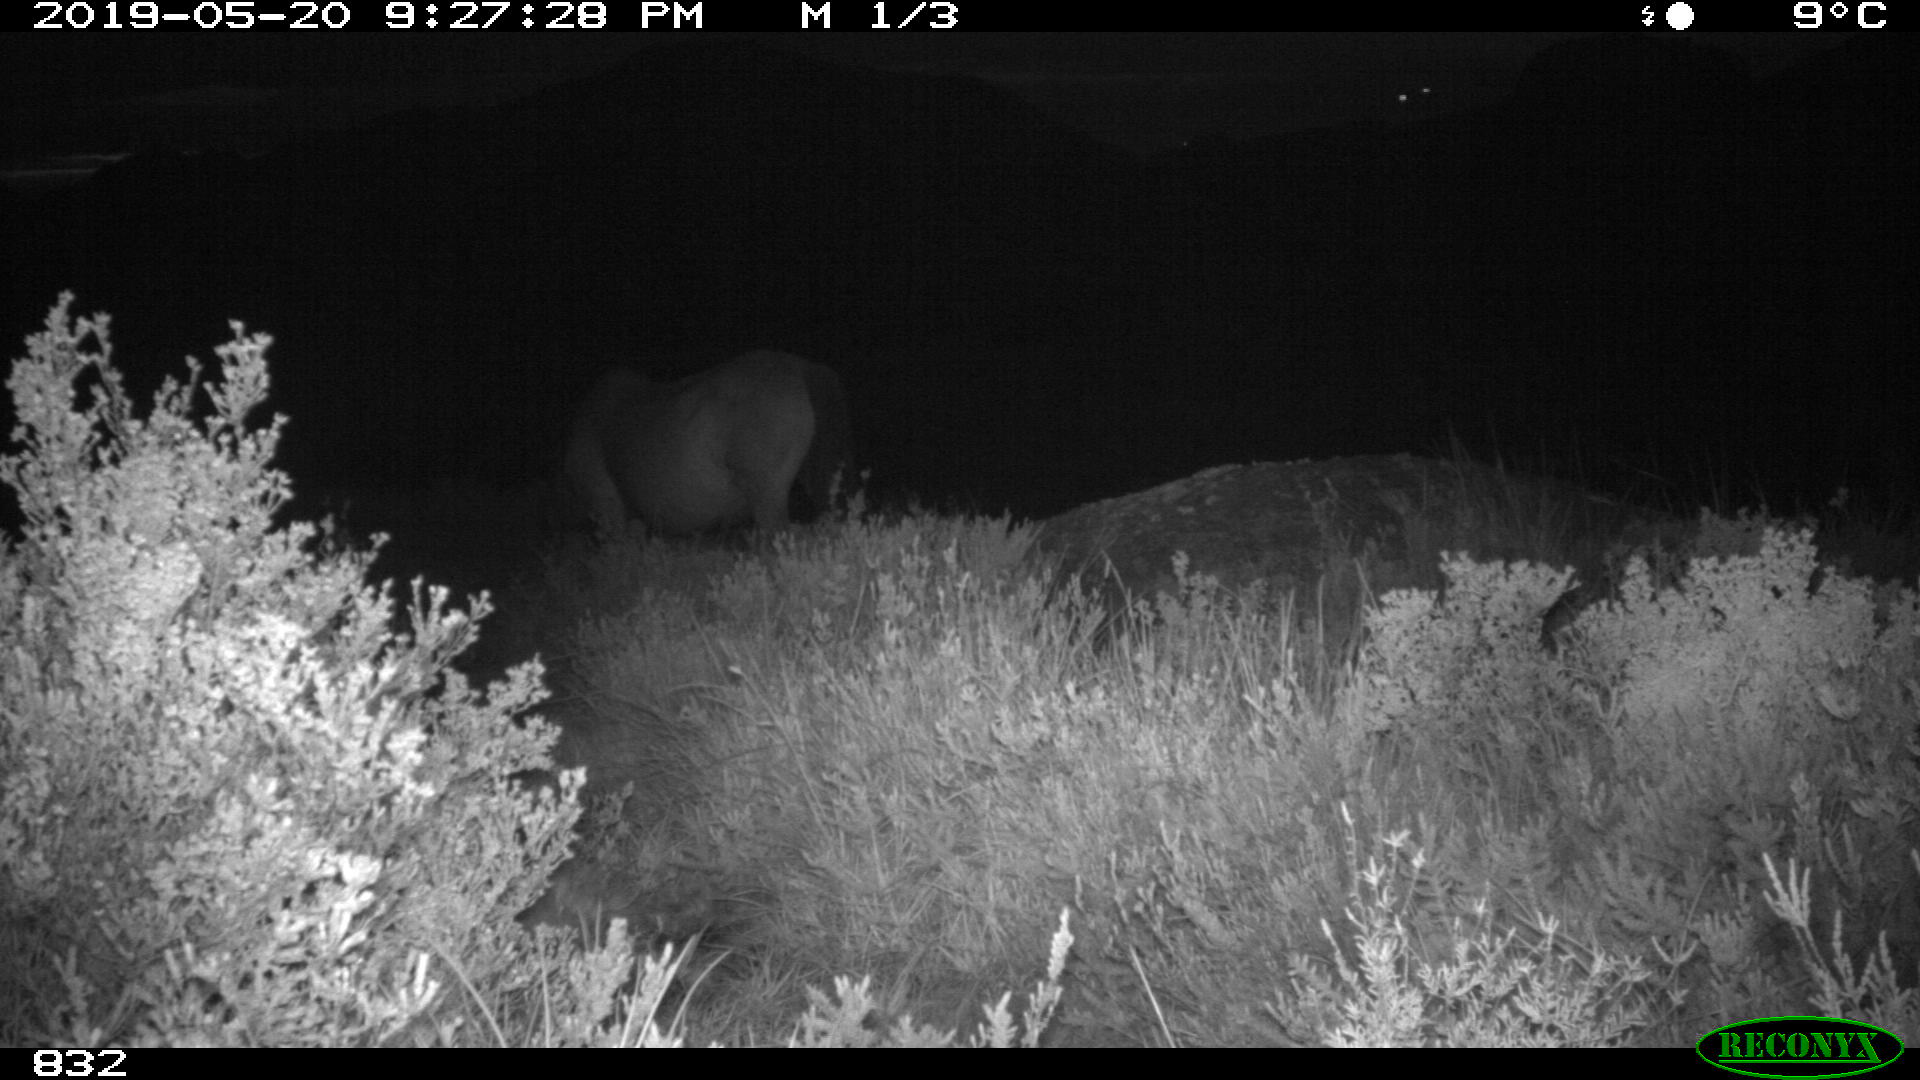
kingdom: Animalia
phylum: Chordata
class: Mammalia
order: Perissodactyla
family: Equidae
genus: Equus
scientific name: Equus caballus
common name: Horse
